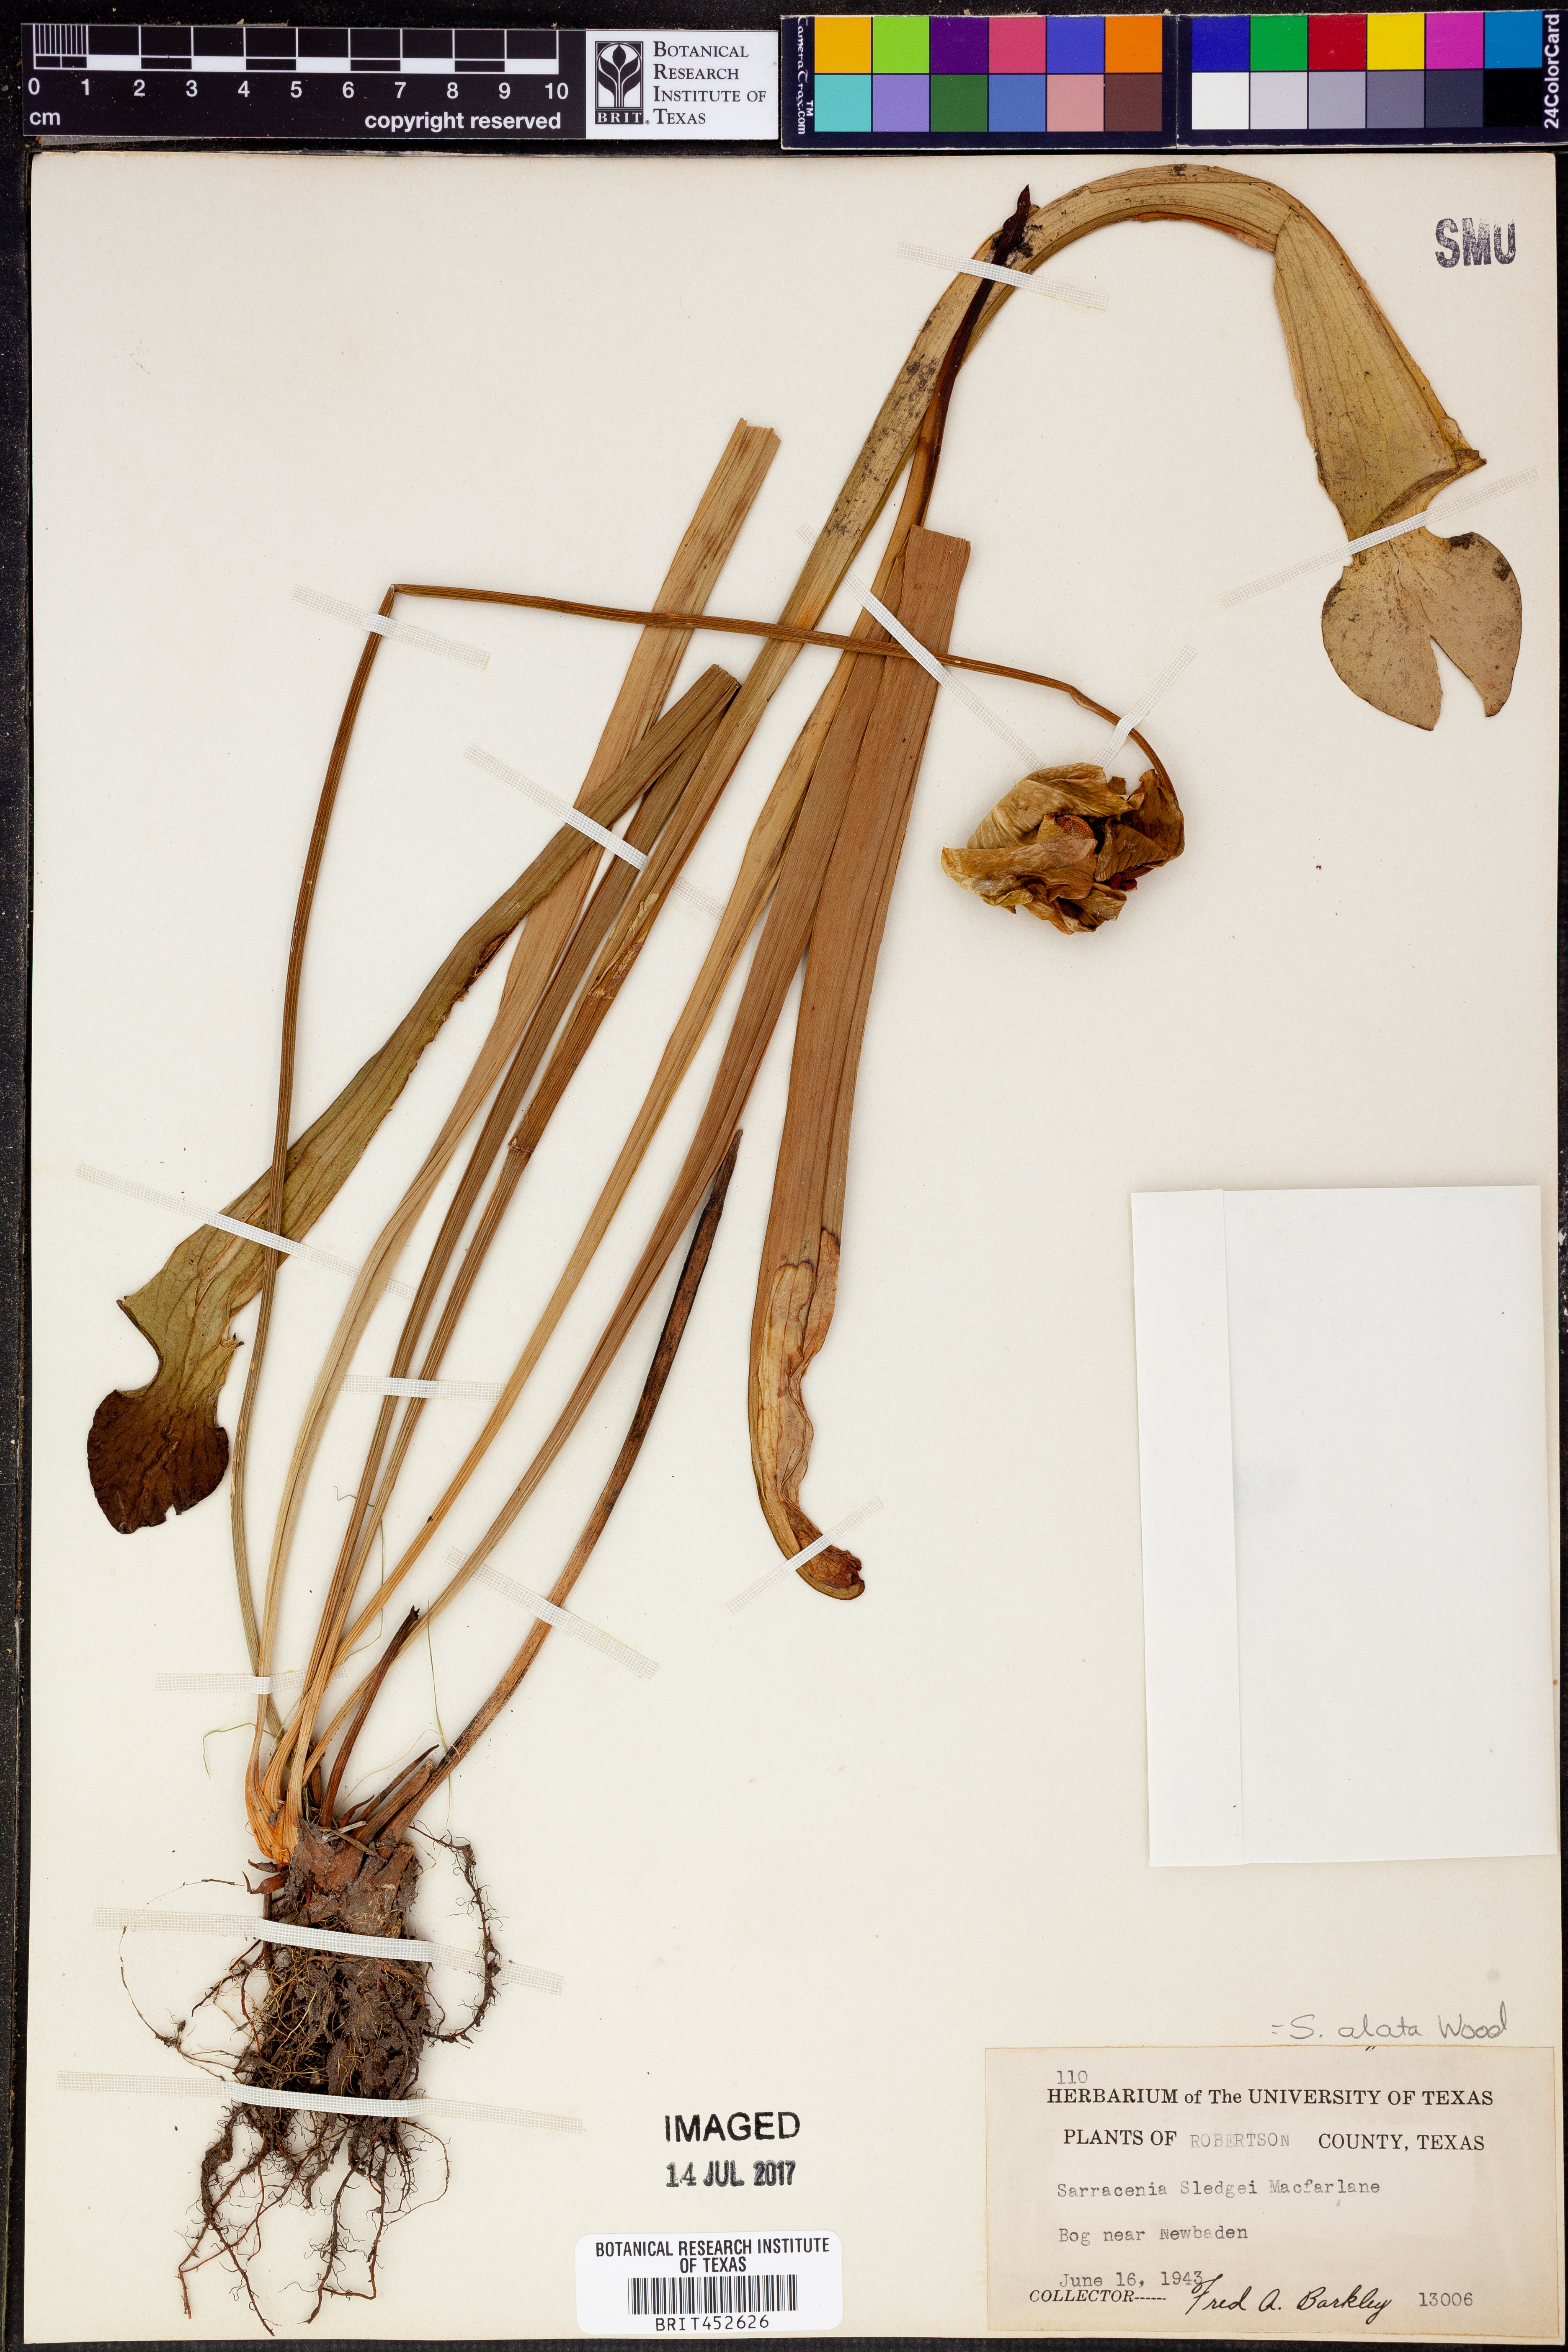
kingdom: Plantae
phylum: Tracheophyta
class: Magnoliopsida
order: Ericales
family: Sarraceniaceae
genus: Sarracenia
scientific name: Sarracenia alata
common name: Yellow trumpets
